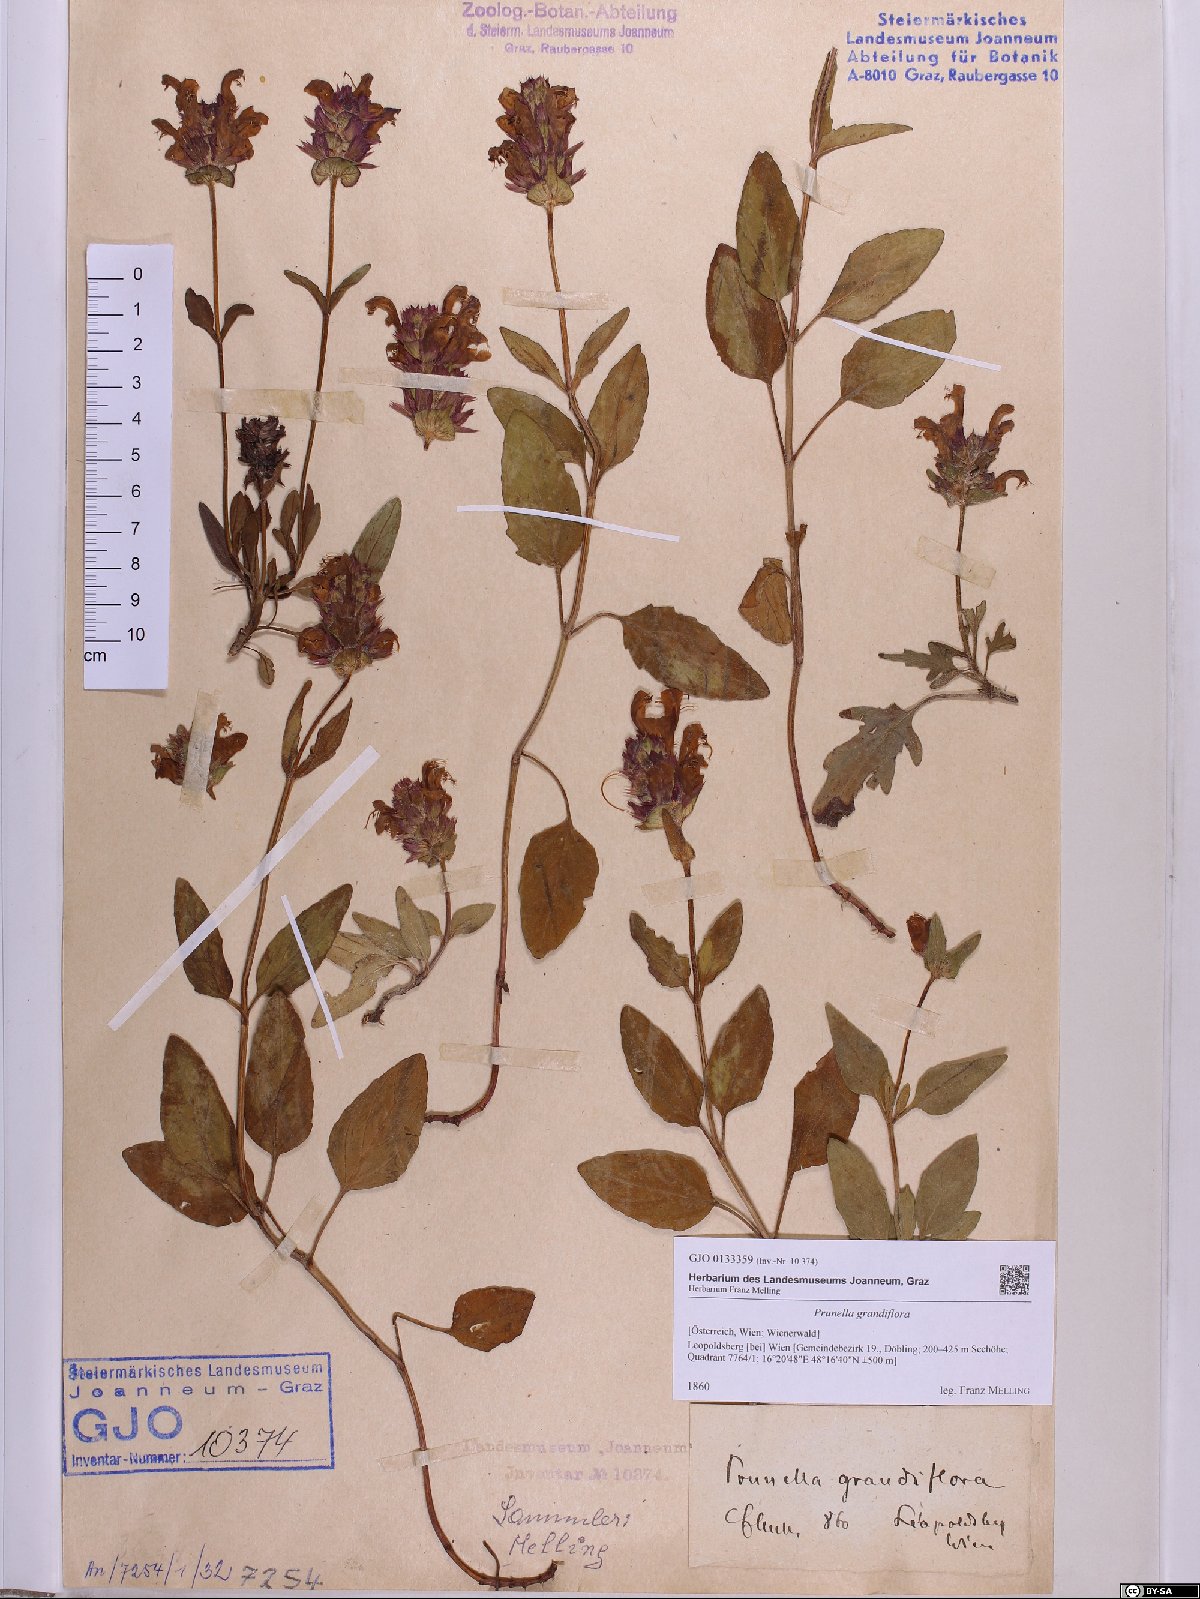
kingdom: Plantae
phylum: Tracheophyta
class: Magnoliopsida
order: Lamiales
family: Lamiaceae
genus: Prunella
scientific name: Prunella grandiflora
